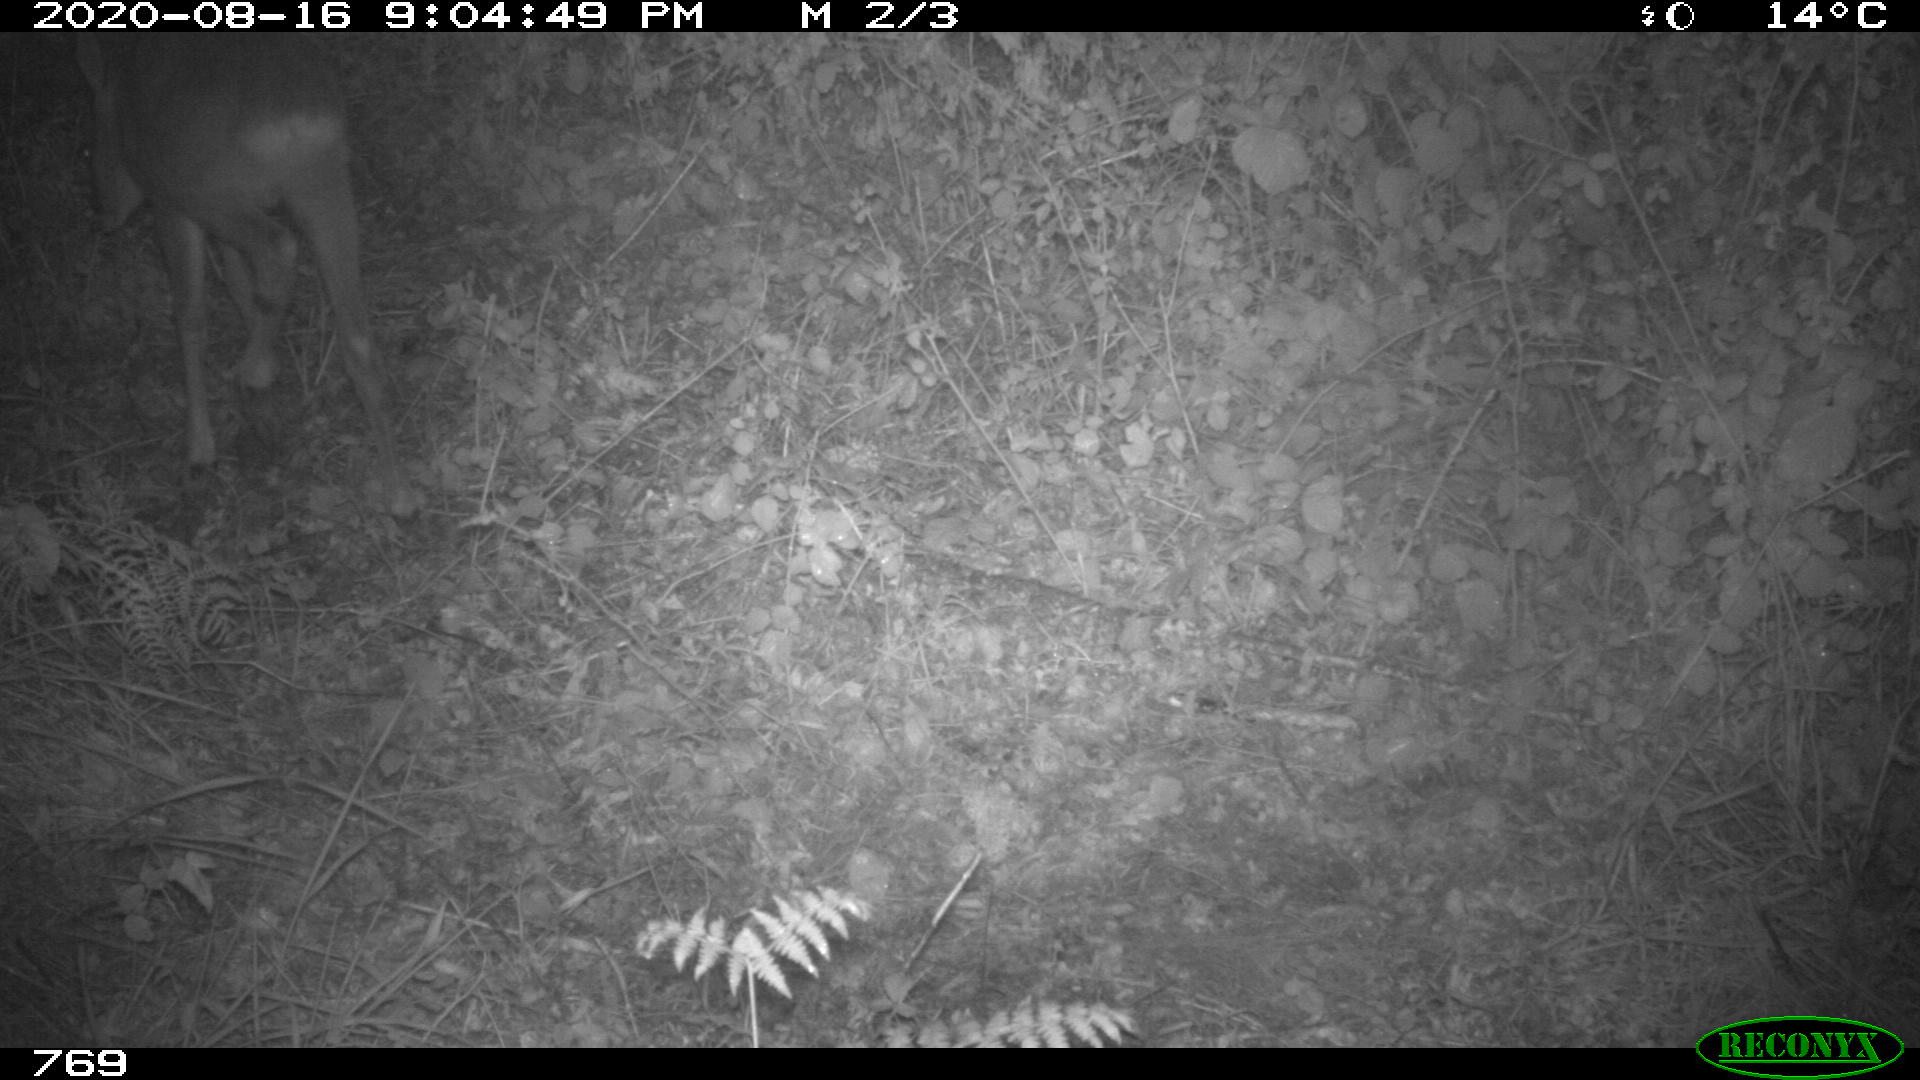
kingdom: Animalia
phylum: Chordata
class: Mammalia
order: Artiodactyla
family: Cervidae
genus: Capreolus
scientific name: Capreolus capreolus
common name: Western roe deer
